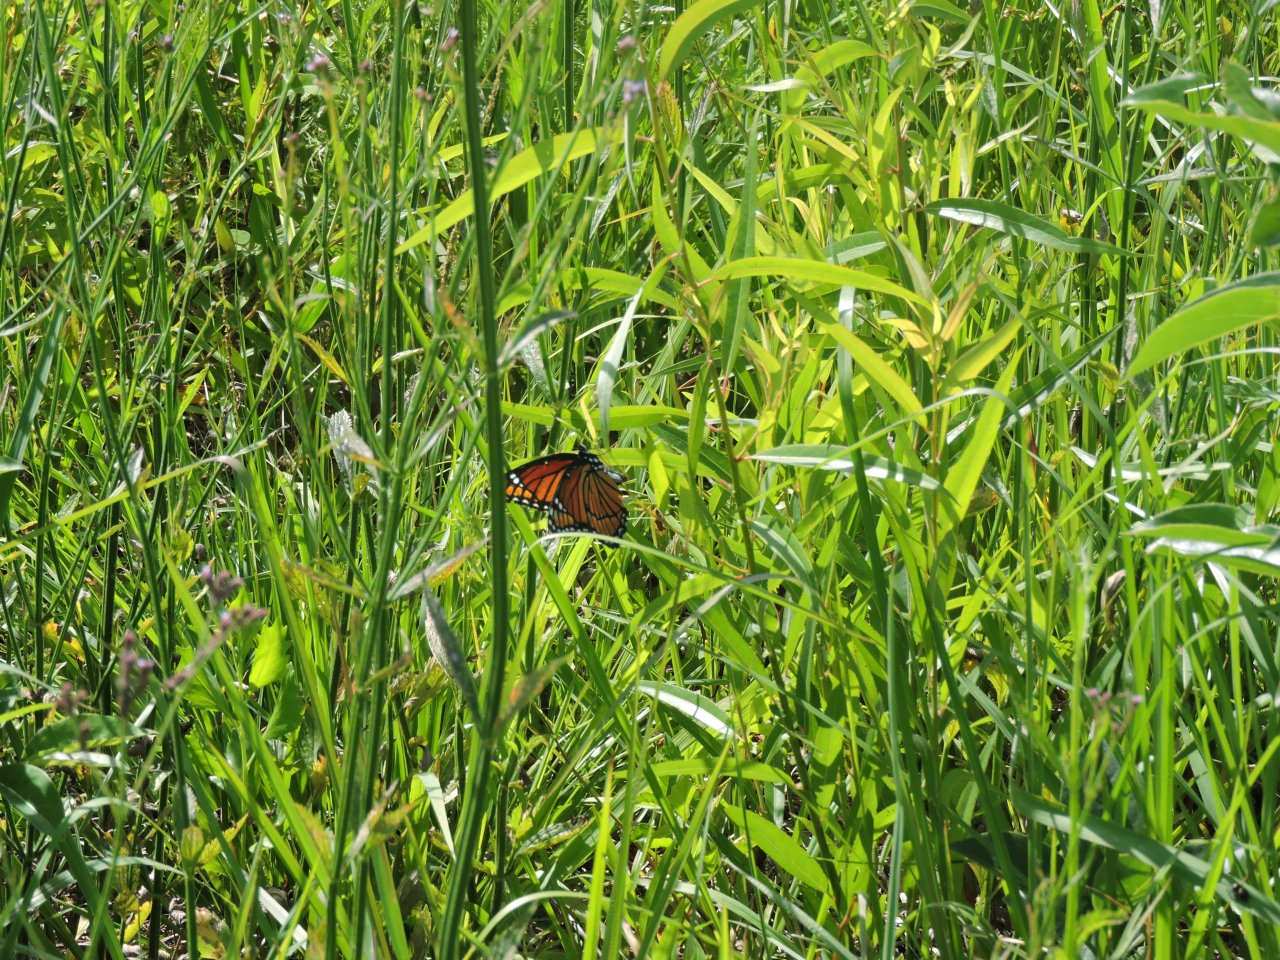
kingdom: Animalia
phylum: Arthropoda
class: Insecta
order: Lepidoptera
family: Nymphalidae
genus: Limenitis
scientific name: Limenitis archippus
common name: Viceroy
